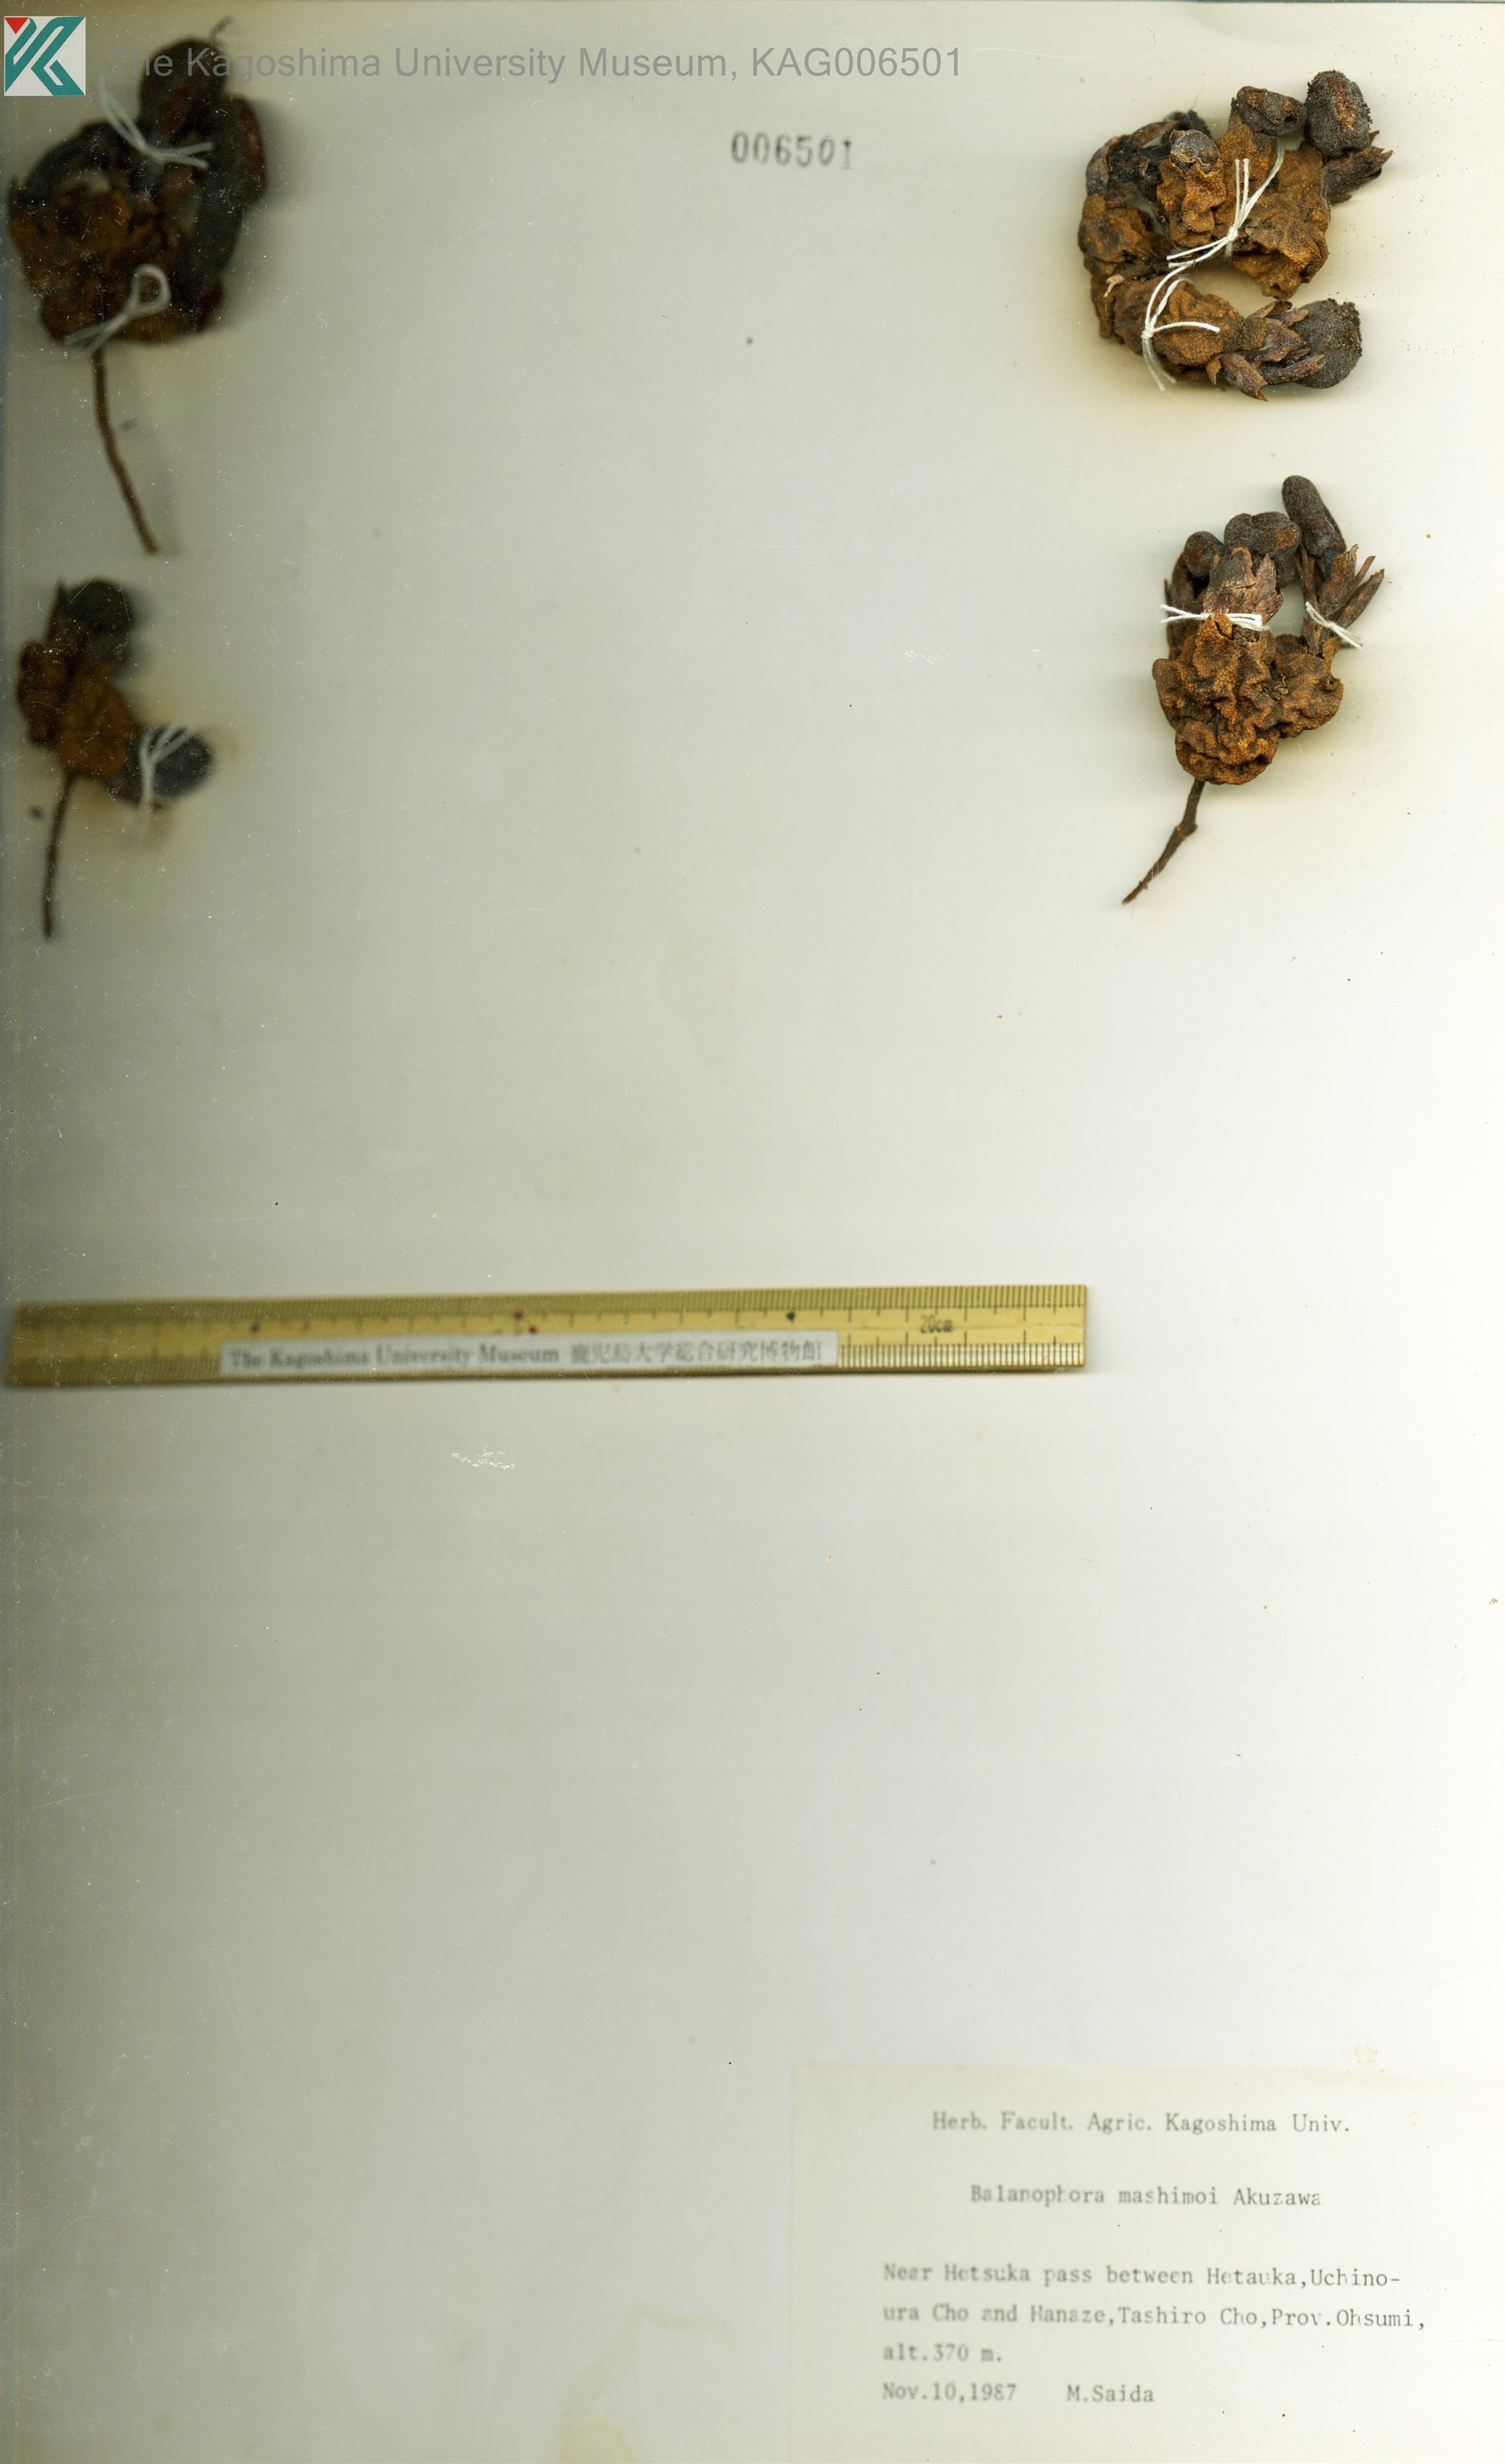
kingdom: Plantae
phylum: Tracheophyta
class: Magnoliopsida
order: Santalales
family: Balanophoraceae
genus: Balanophora
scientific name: Balanophora yakushimensis
